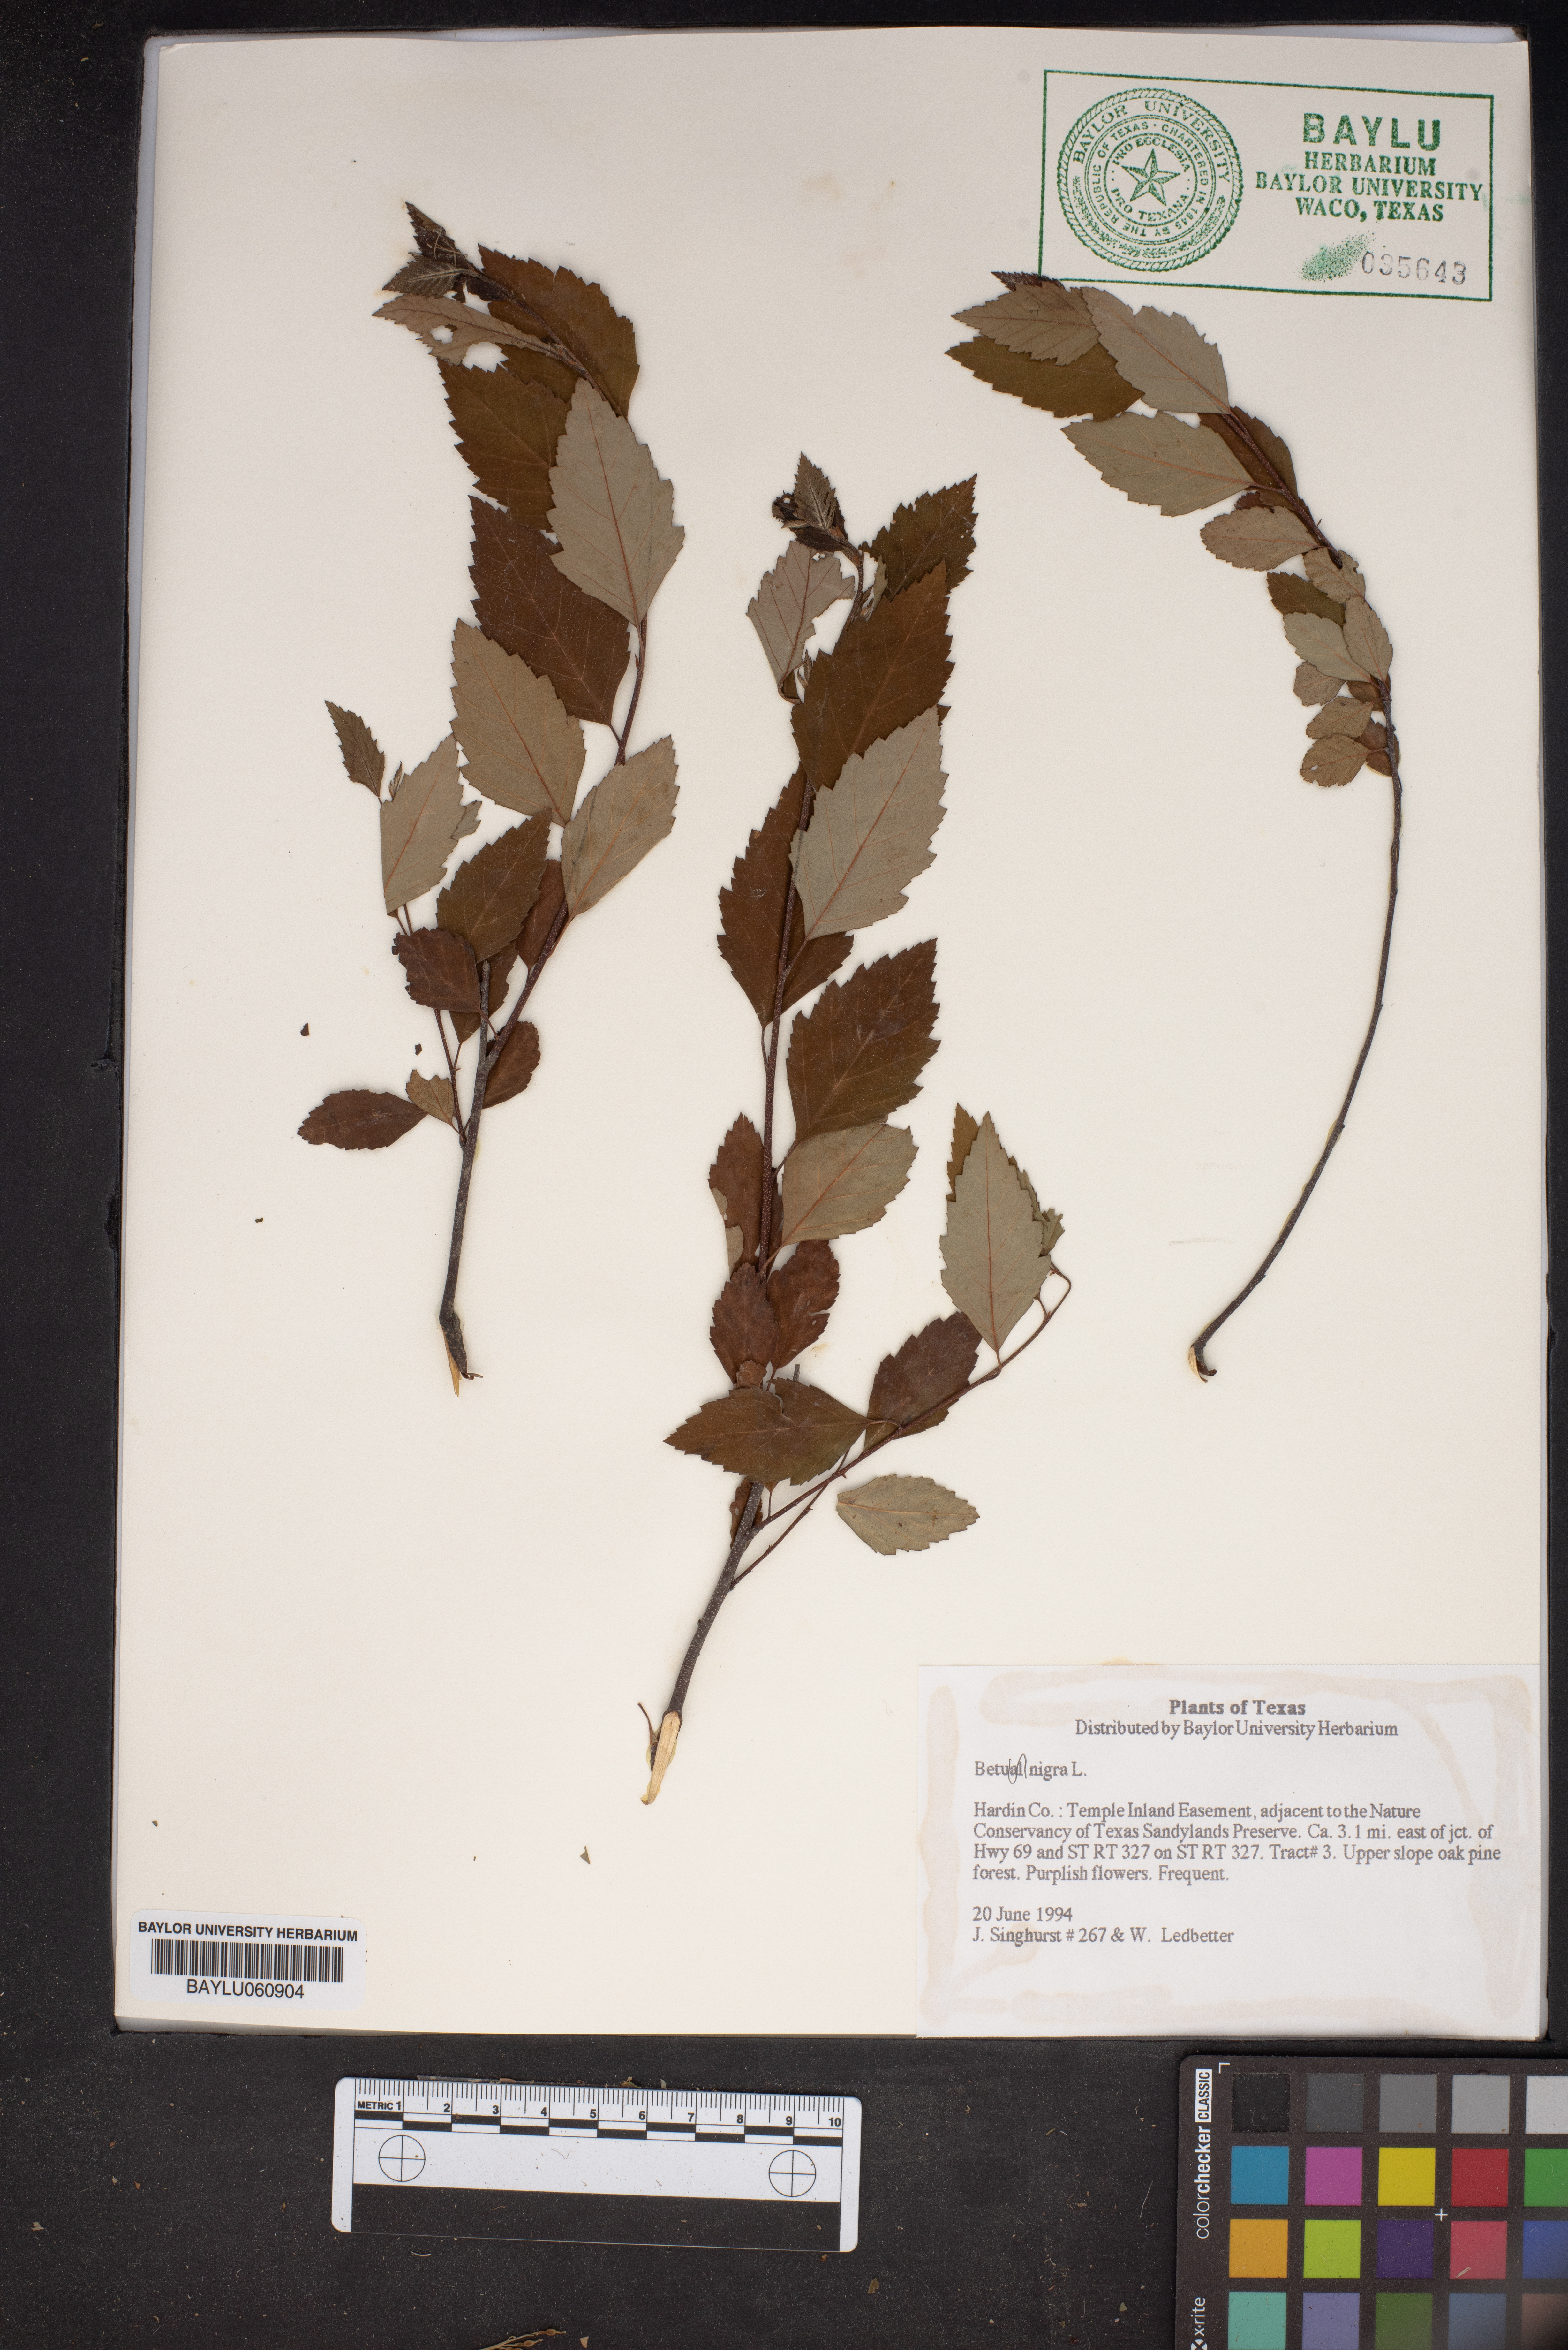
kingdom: Plantae
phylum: Tracheophyta
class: Magnoliopsida
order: Fagales
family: Betulaceae
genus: Betula
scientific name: Betula nigra
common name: Black birch
